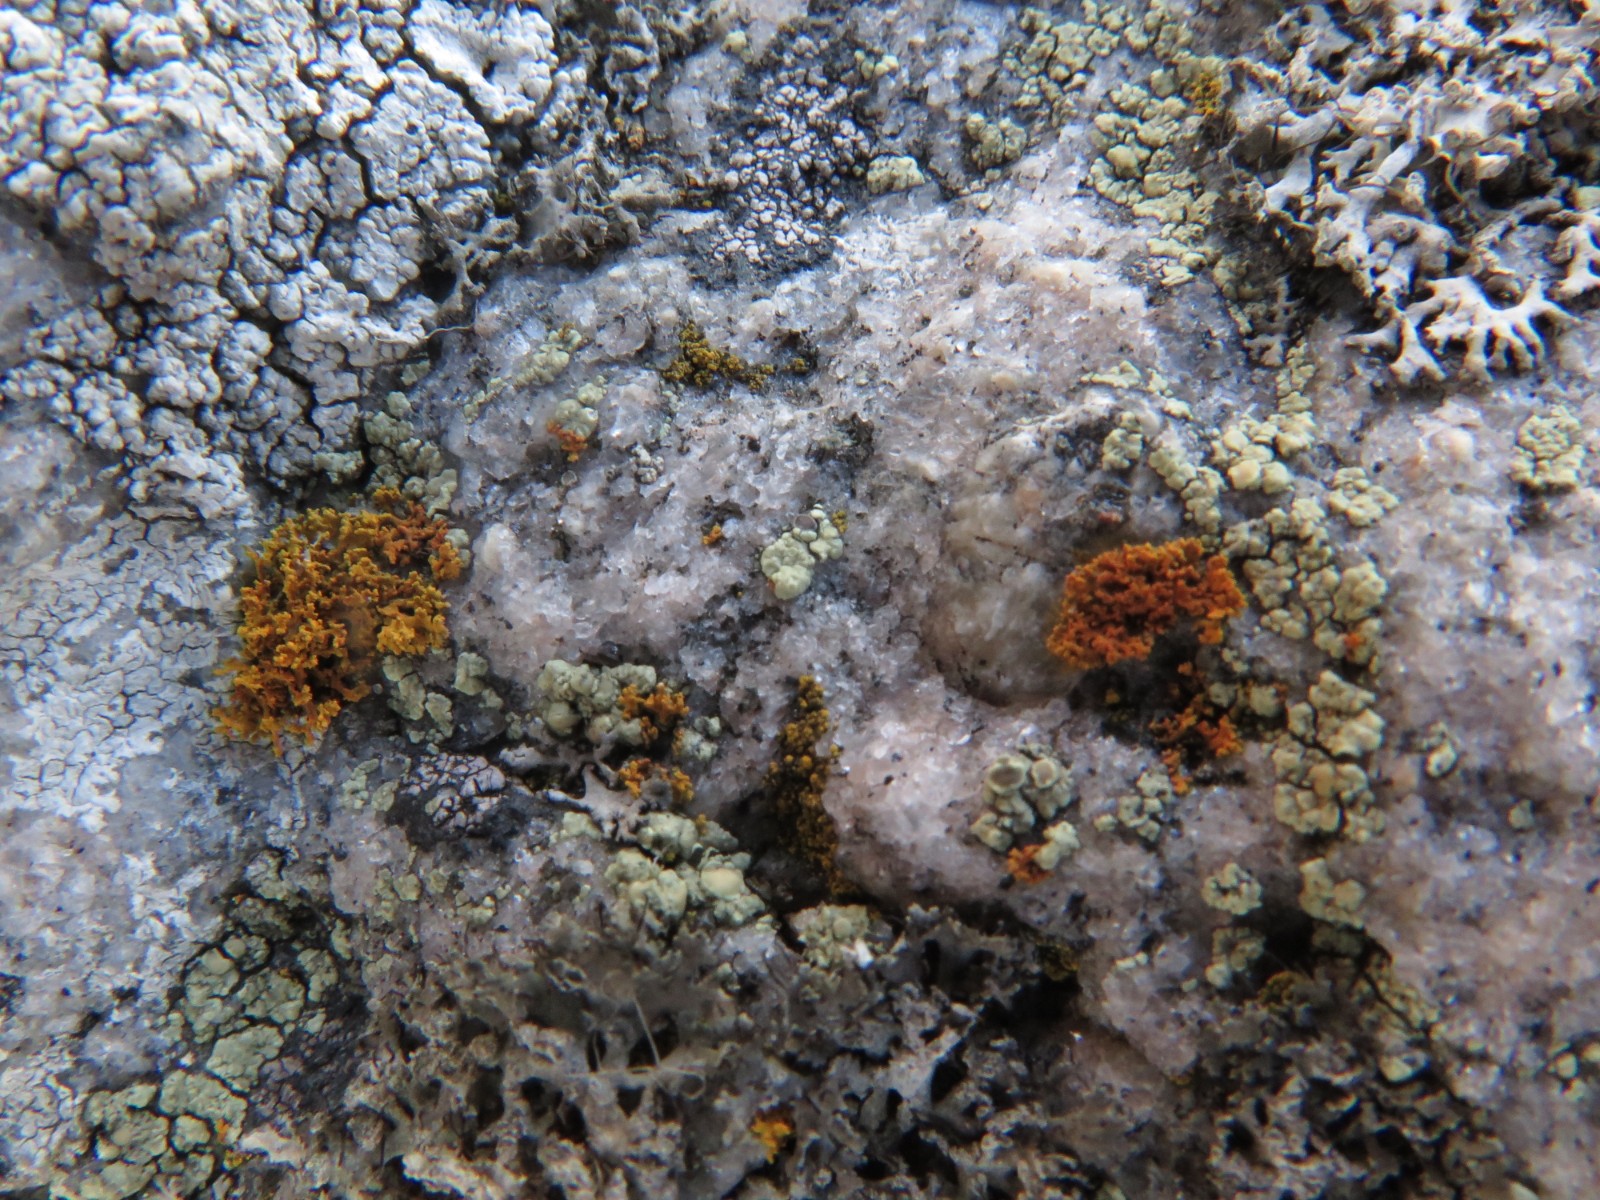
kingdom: Fungi
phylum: Ascomycota
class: Lecanoromycetes
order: Teloschistales
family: Teloschistaceae
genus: Polycauliona
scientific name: Polycauliona candelaria
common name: tue-orangelav
